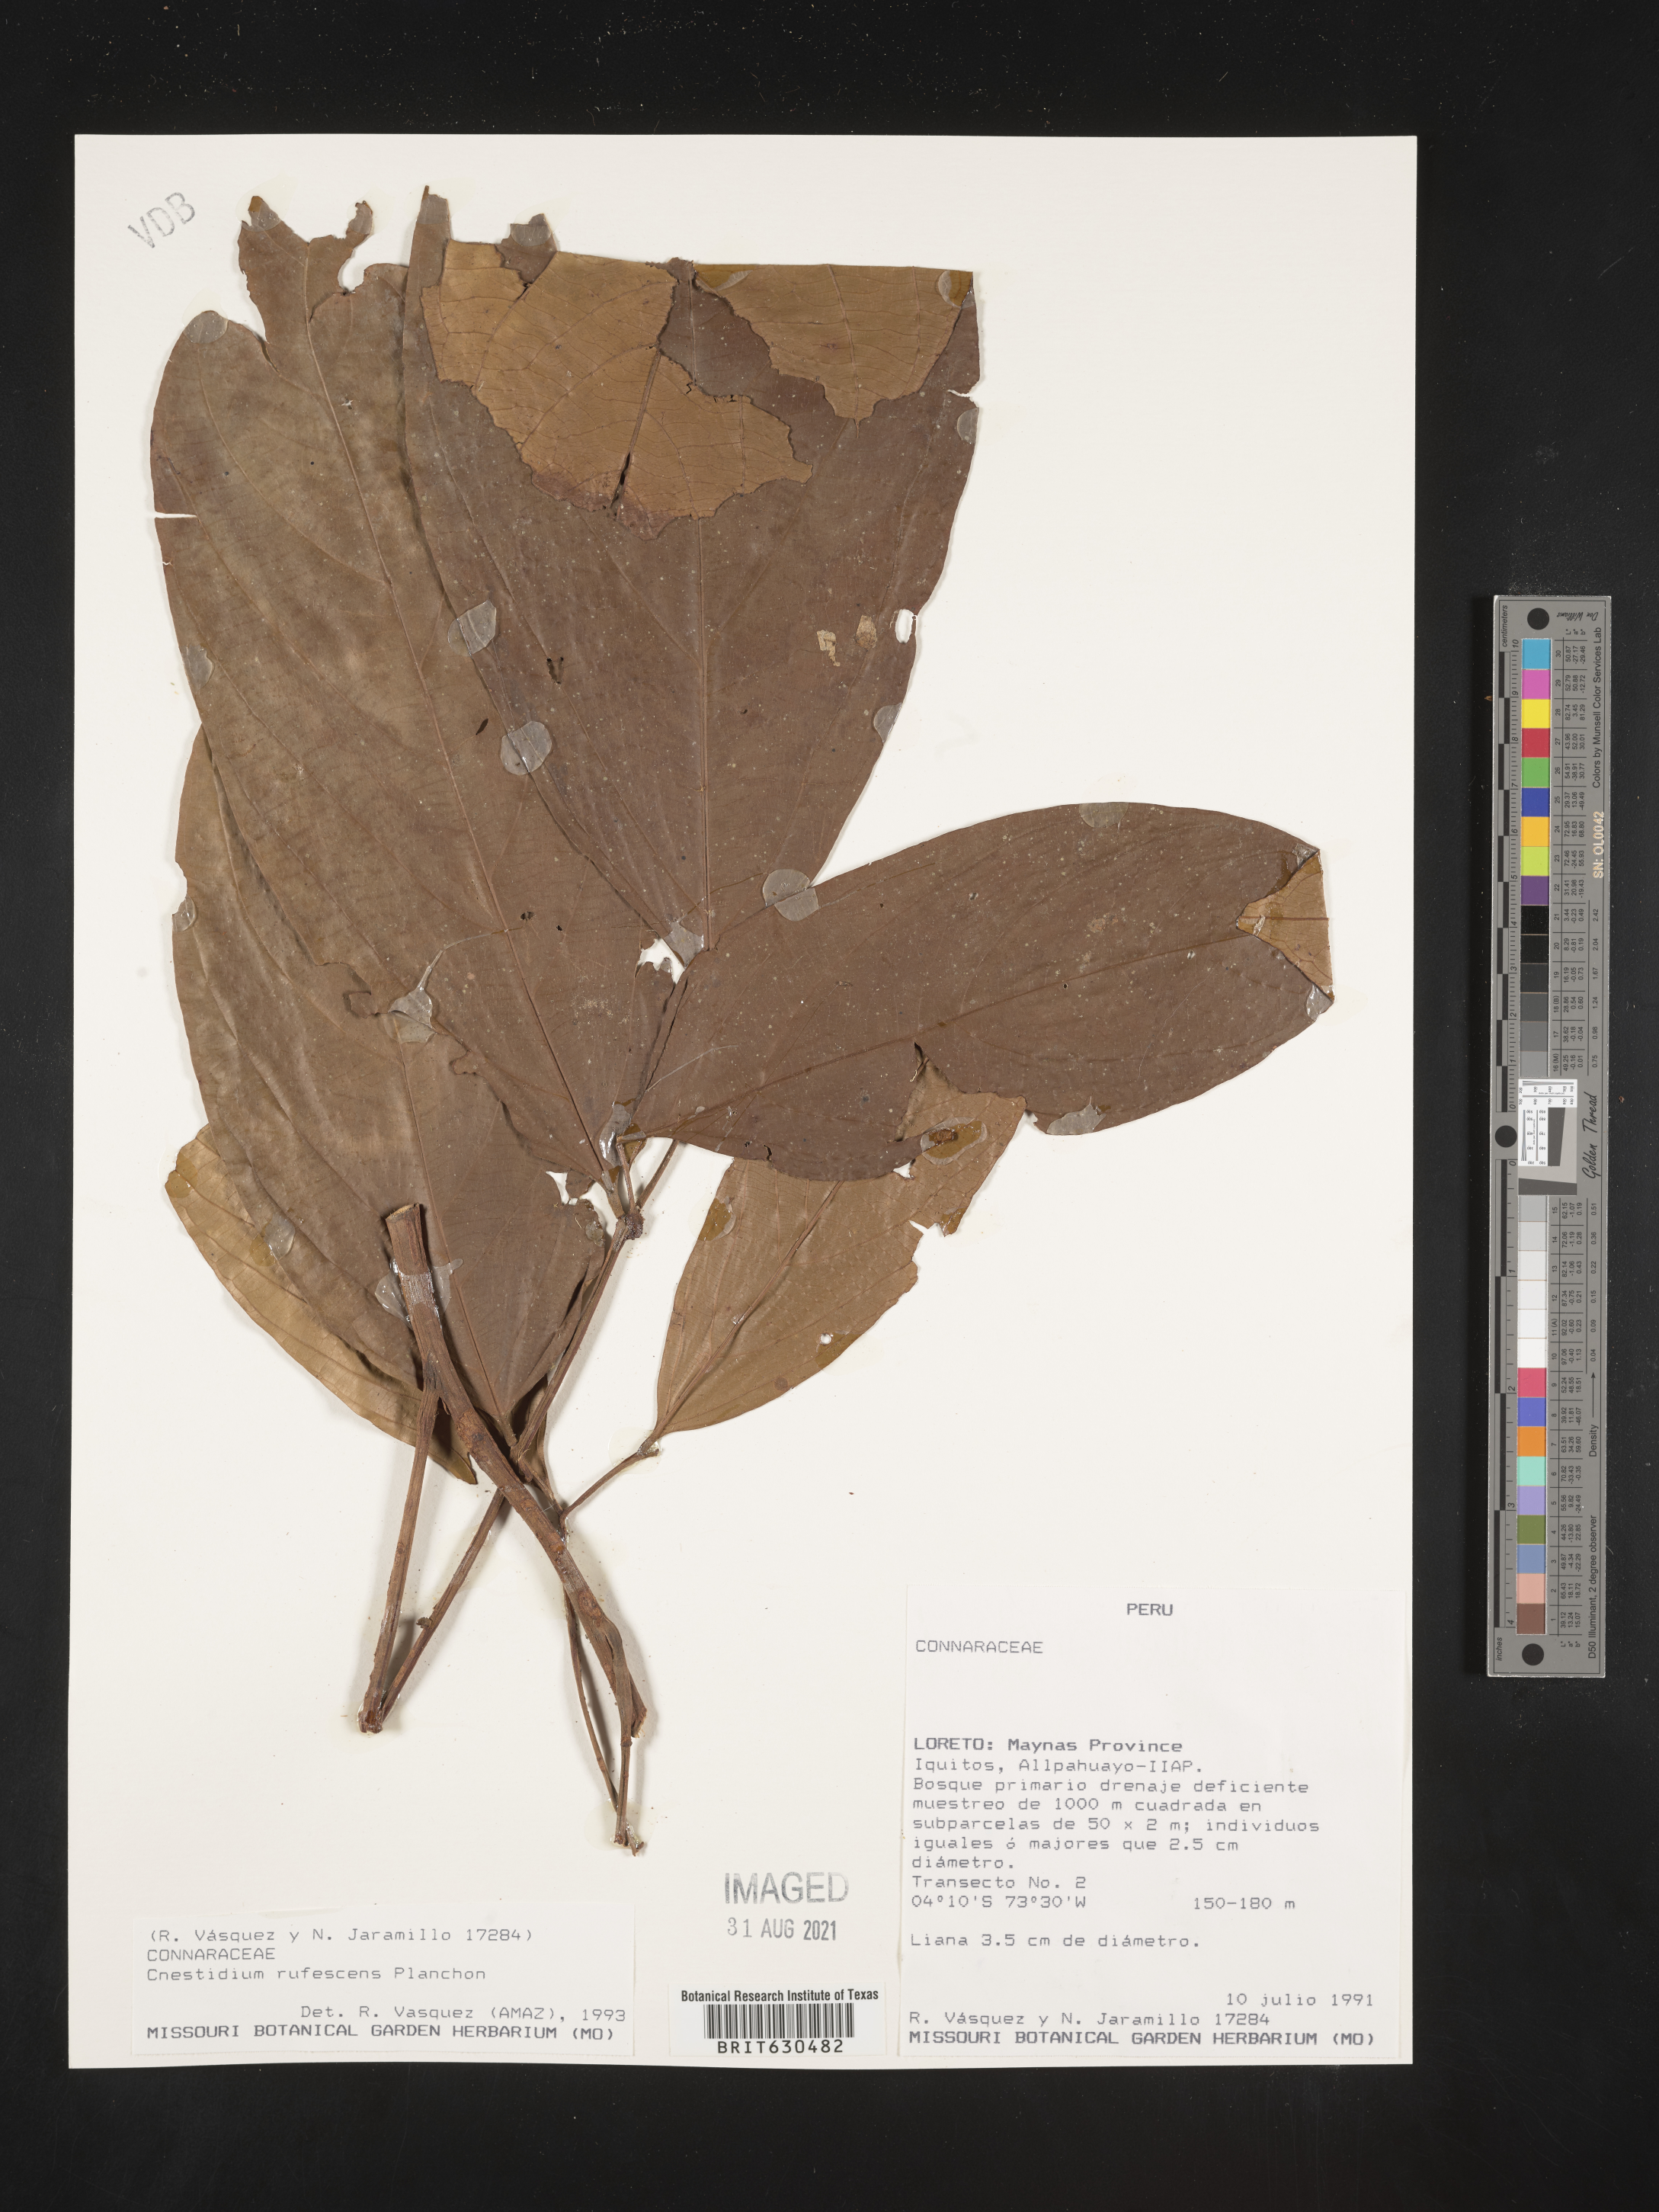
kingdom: Plantae
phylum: Tracheophyta
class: Magnoliopsida
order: Oxalidales
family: Connaraceae
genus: Cnestidium
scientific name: Cnestidium rufescens
